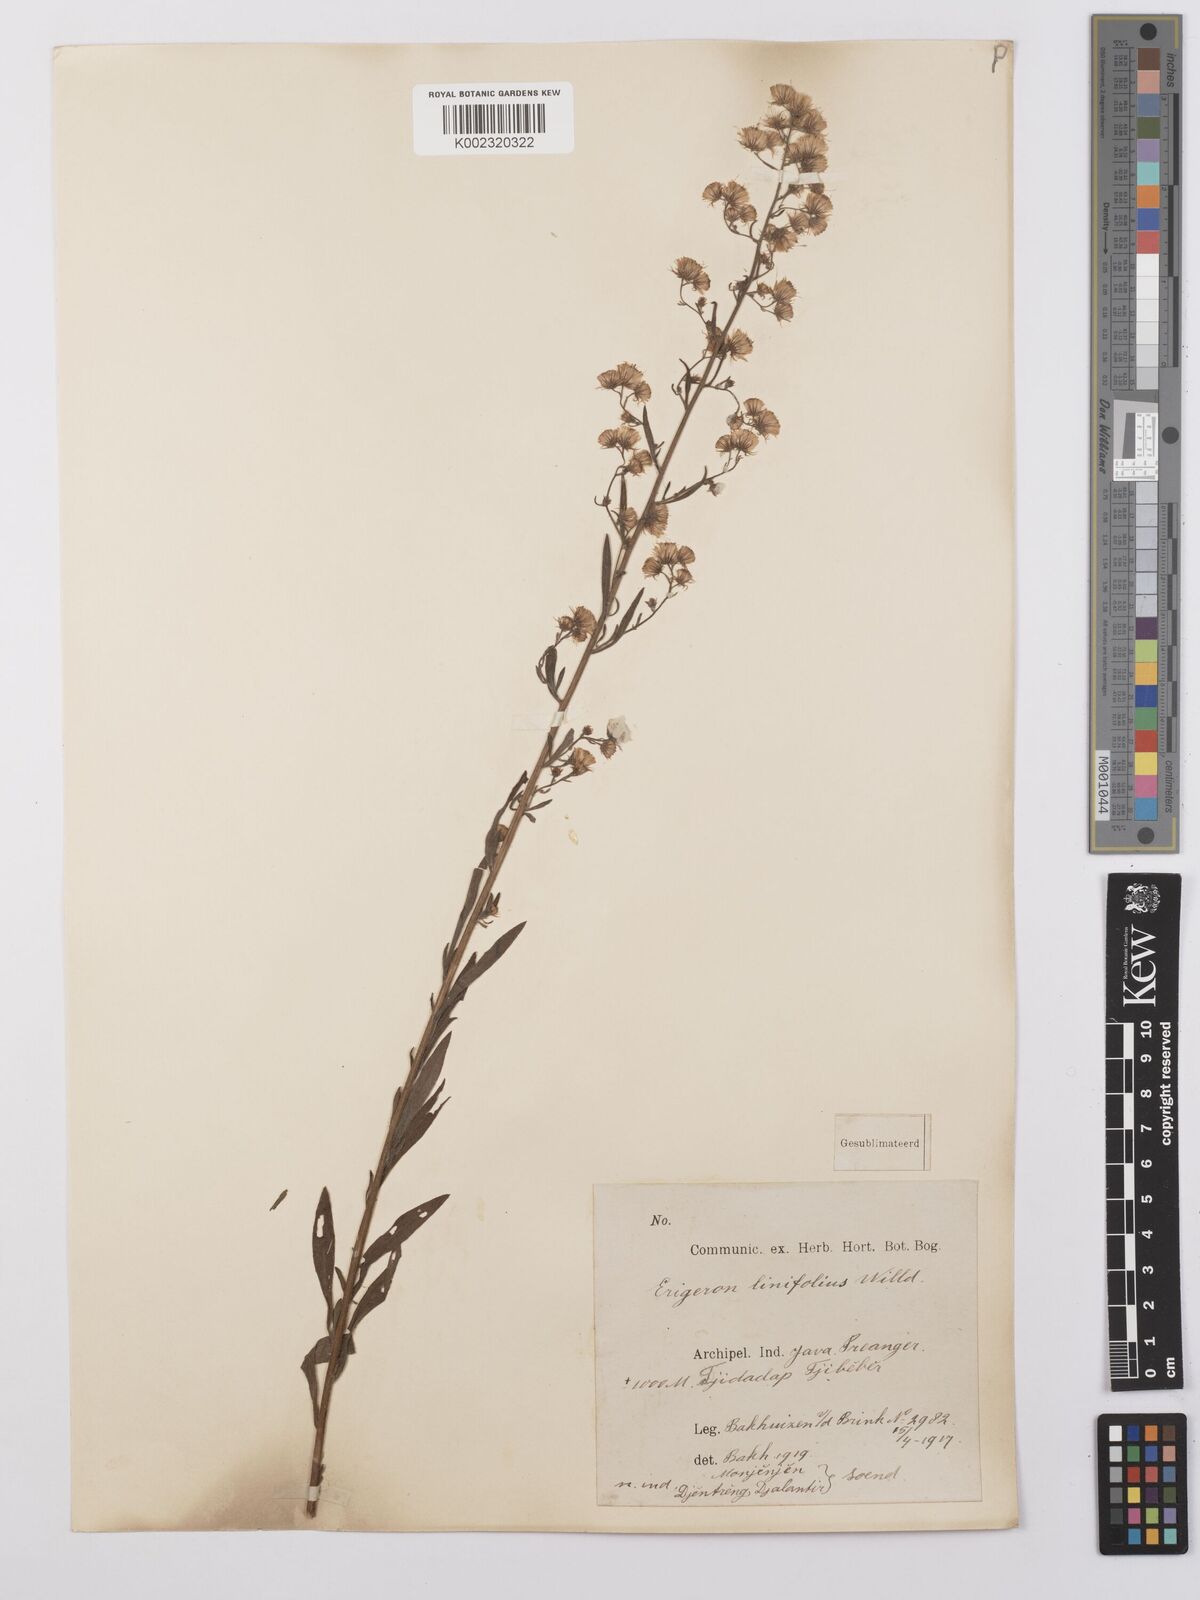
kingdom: Plantae
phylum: Tracheophyta
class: Magnoliopsida
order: Asterales
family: Asteraceae
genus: Erigeron
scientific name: Erigeron sumatrensis
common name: Daisy
